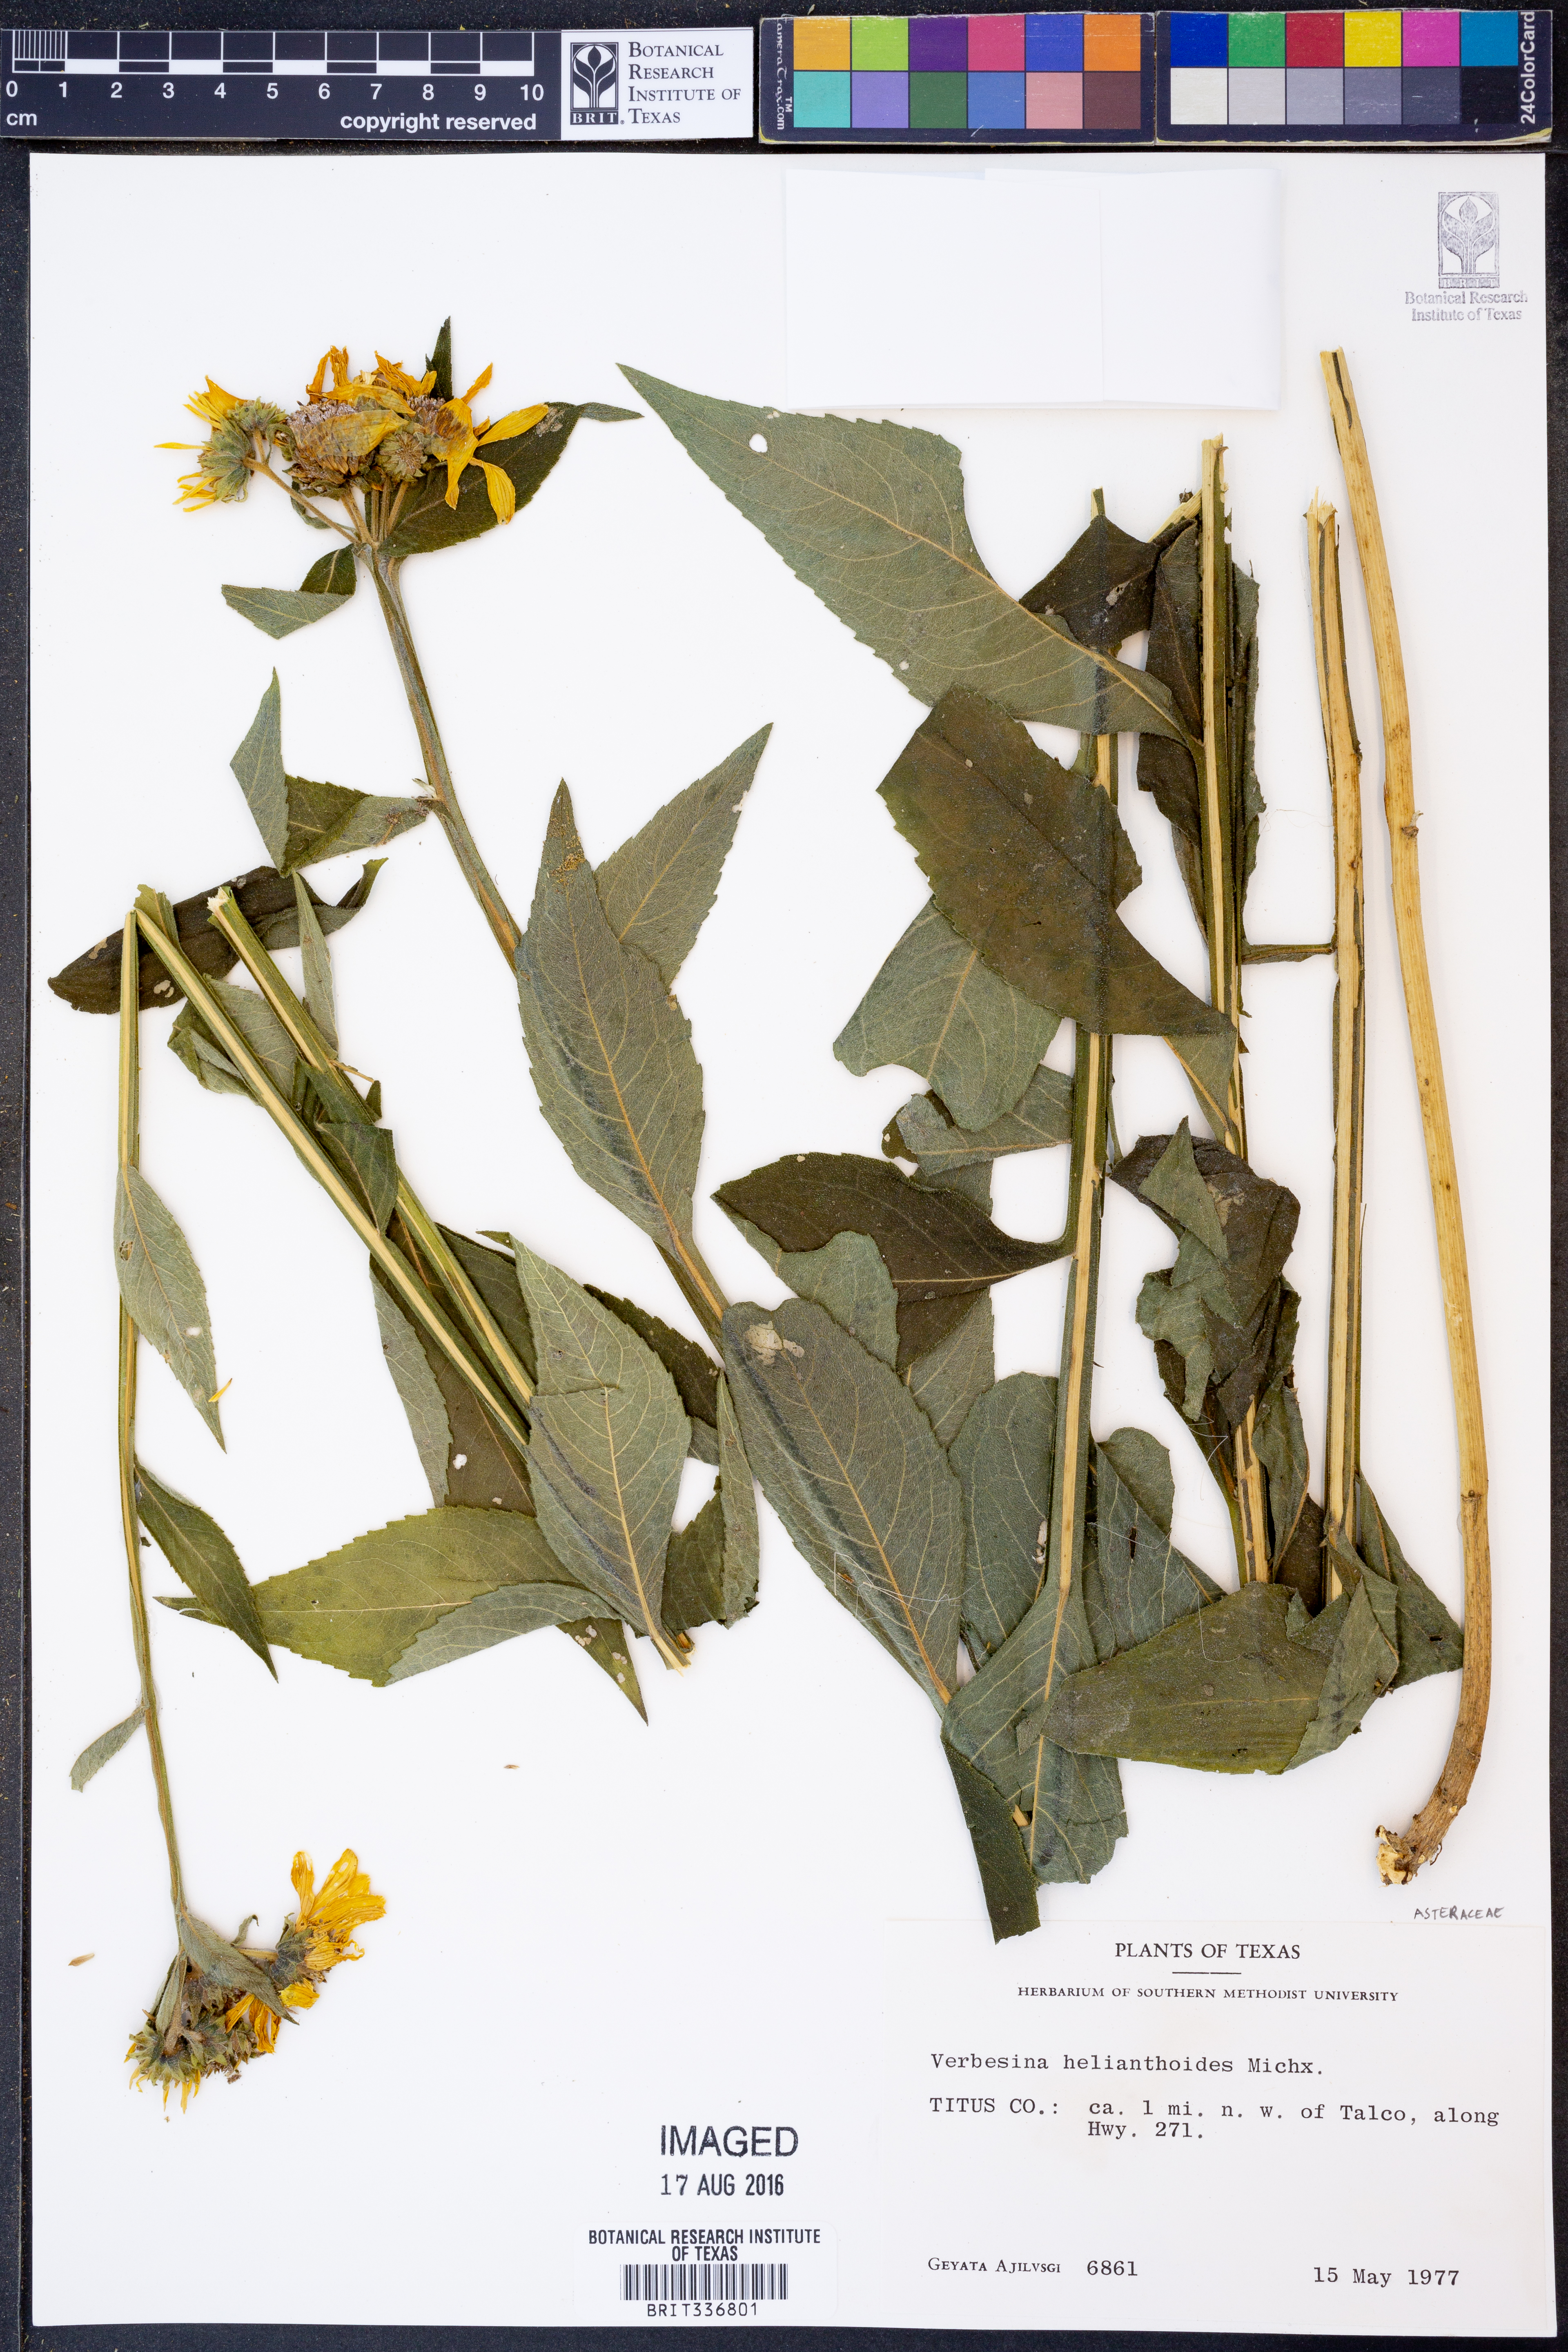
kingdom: Plantae
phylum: Tracheophyta
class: Magnoliopsida
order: Asterales
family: Asteraceae
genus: Verbesina
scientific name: Verbesina helianthoides
